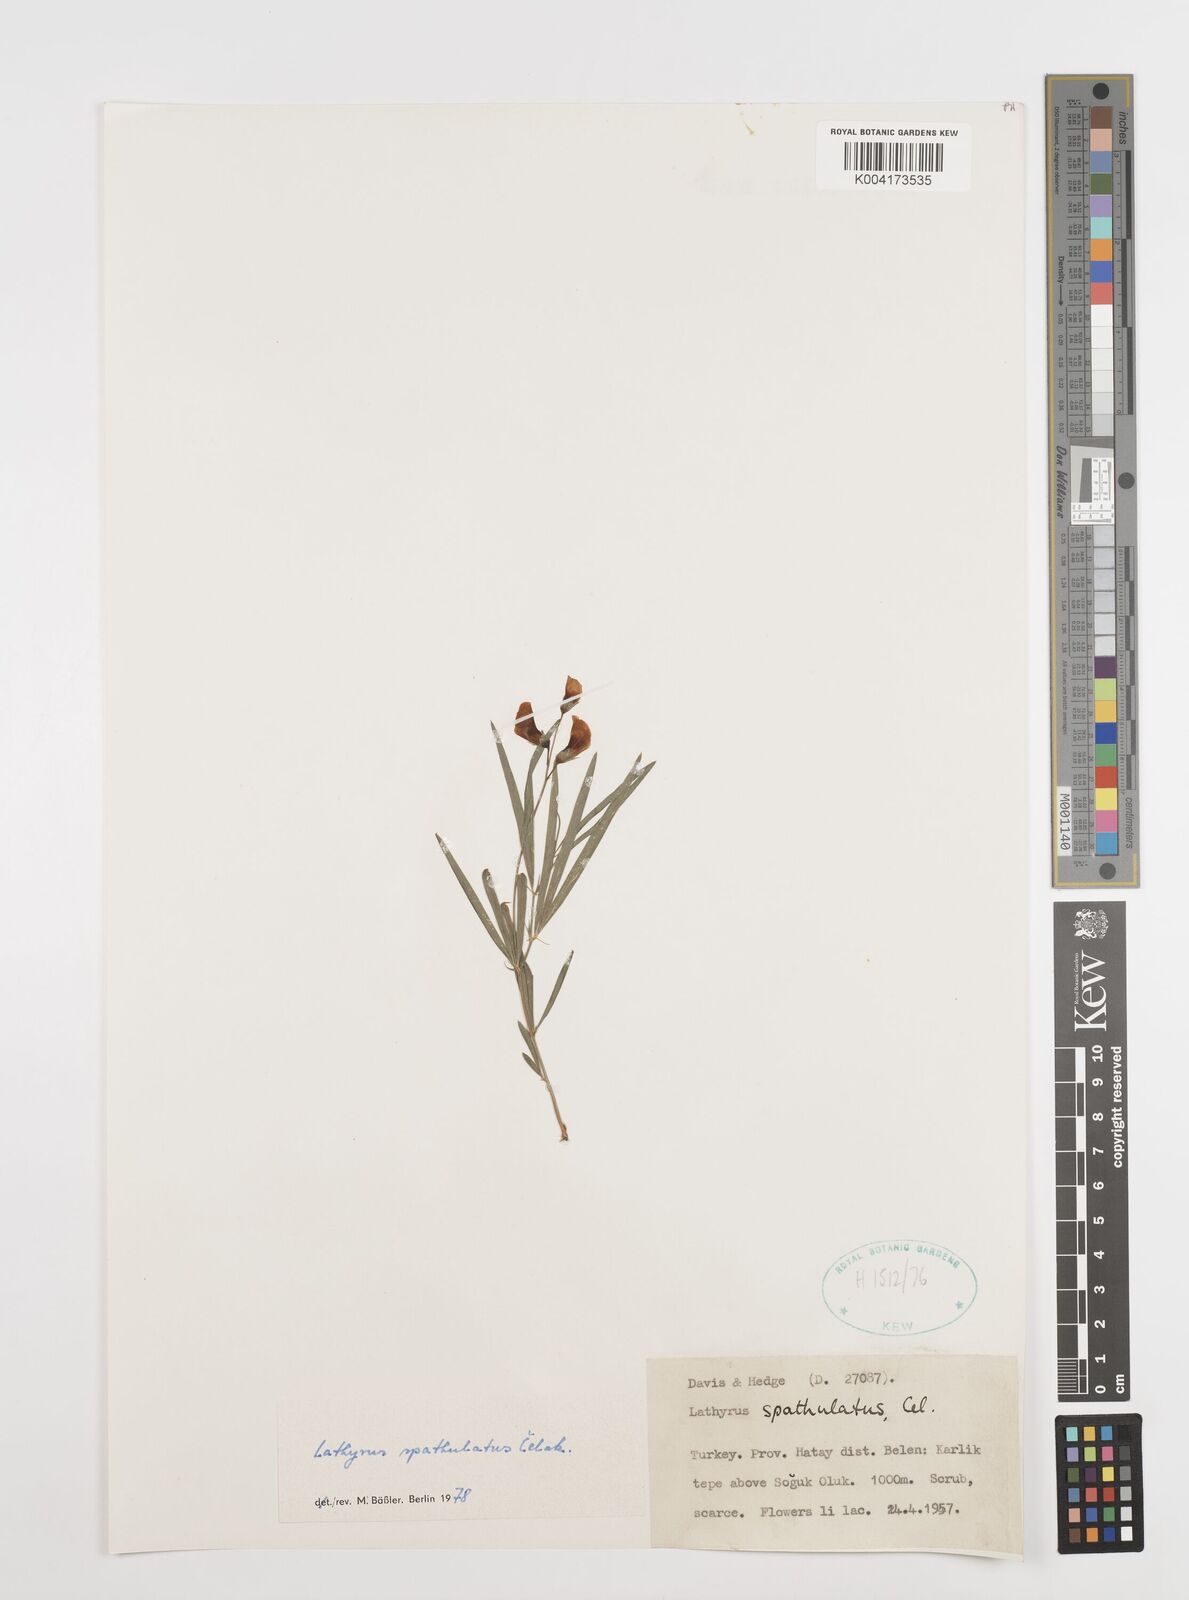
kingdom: Plantae
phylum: Tracheophyta
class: Magnoliopsida
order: Fabales
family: Fabaceae
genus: Lathyrus
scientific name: Lathyrus spathulatus
